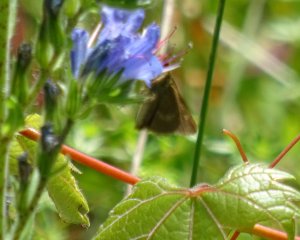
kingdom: Animalia
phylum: Arthropoda
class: Insecta
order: Lepidoptera
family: Hesperiidae
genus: Polites
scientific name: Polites egeremet
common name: Northern Broken-Dash
